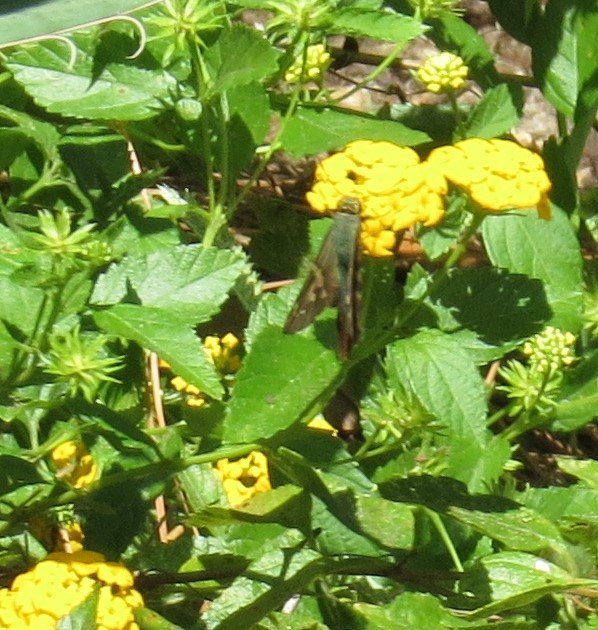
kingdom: Animalia
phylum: Arthropoda
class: Insecta
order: Lepidoptera
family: Hesperiidae
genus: Urbanus
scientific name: Urbanus proteus
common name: Long-tailed Skipper
